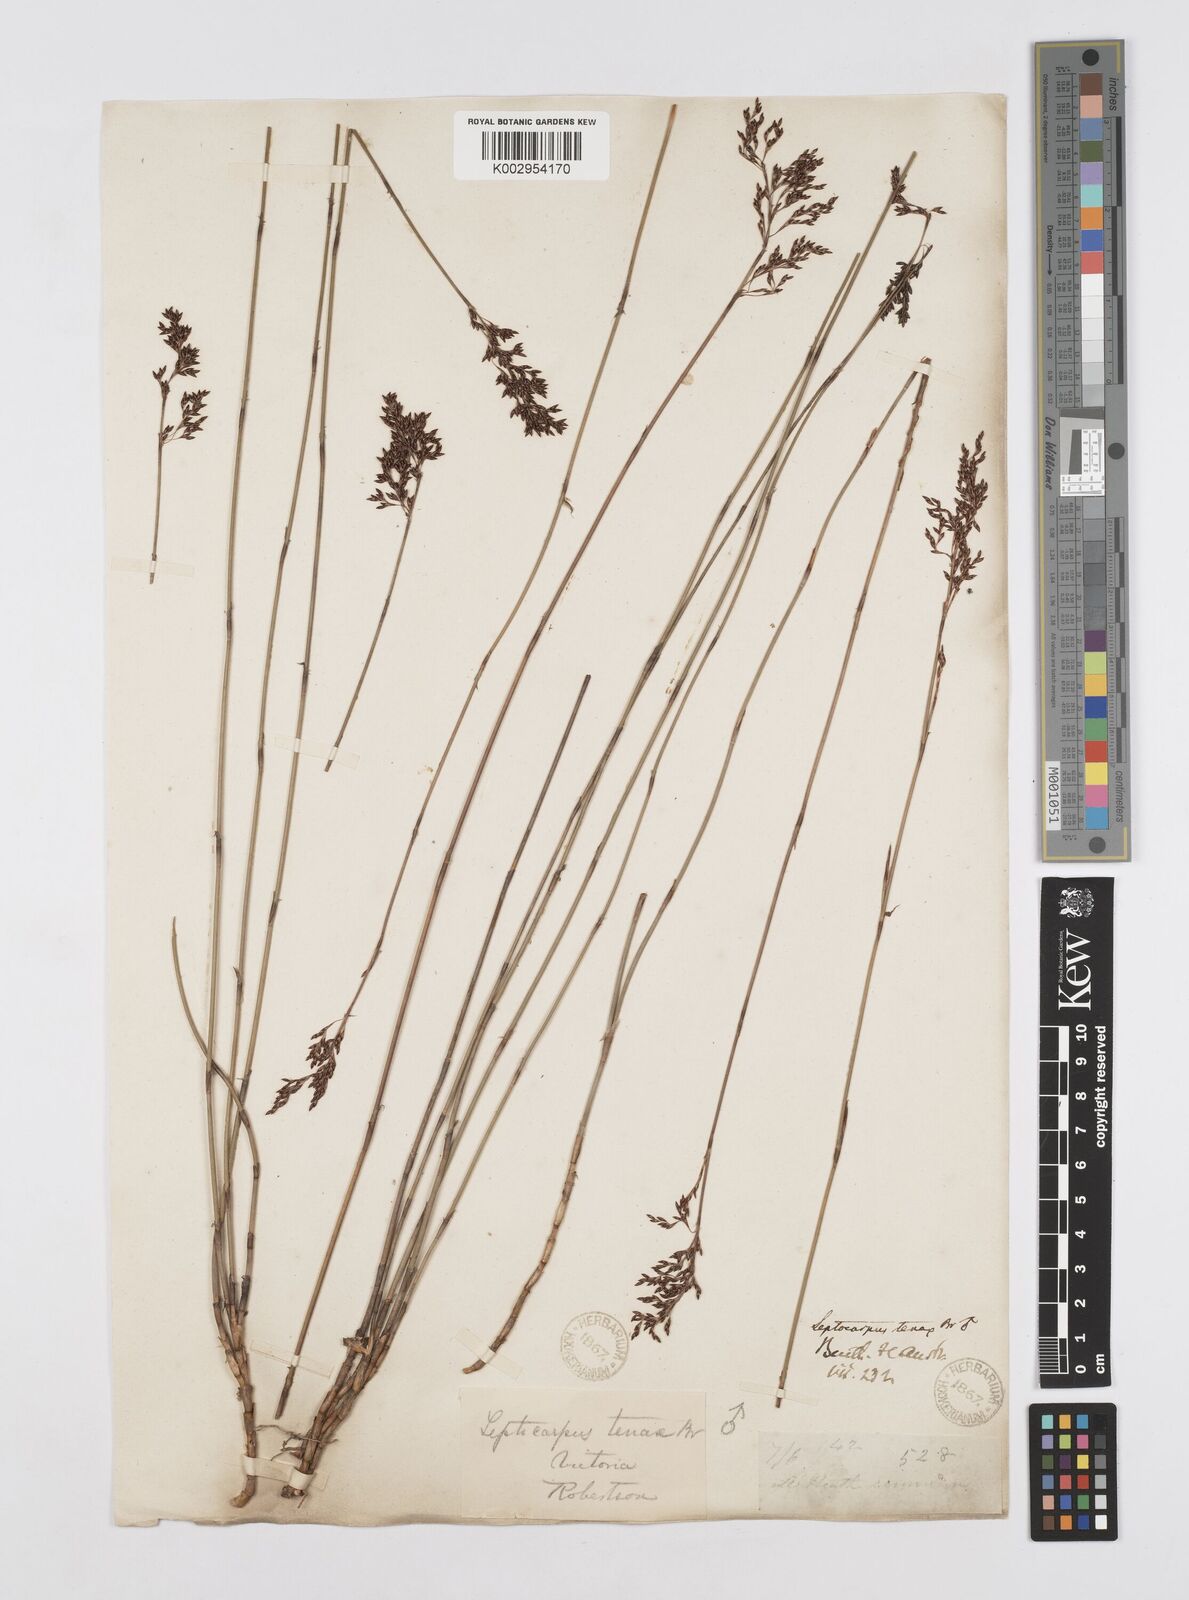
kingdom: Plantae
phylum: Tracheophyta
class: Liliopsida
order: Poales
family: Restionaceae
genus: Leptocarpus
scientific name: Leptocarpus tenax
